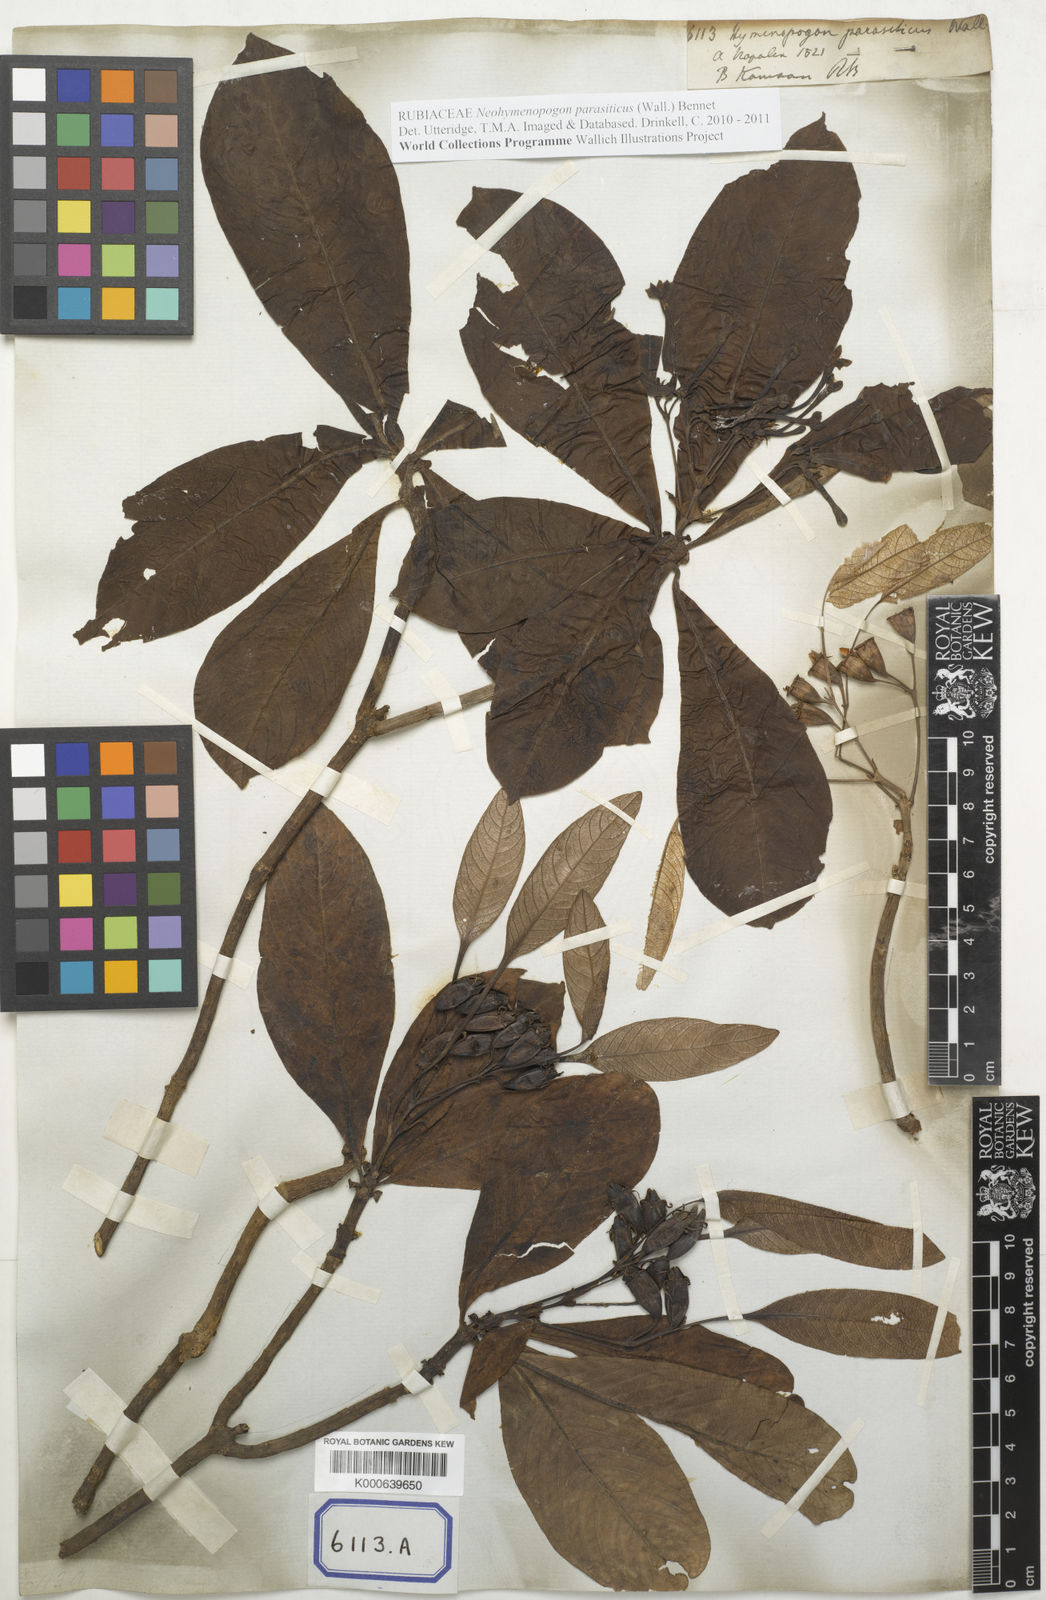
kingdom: Plantae
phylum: Tracheophyta
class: Magnoliopsida
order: Gentianales
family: Rubiaceae
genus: Neohymenopogon
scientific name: Neohymenopogon parasiticus
